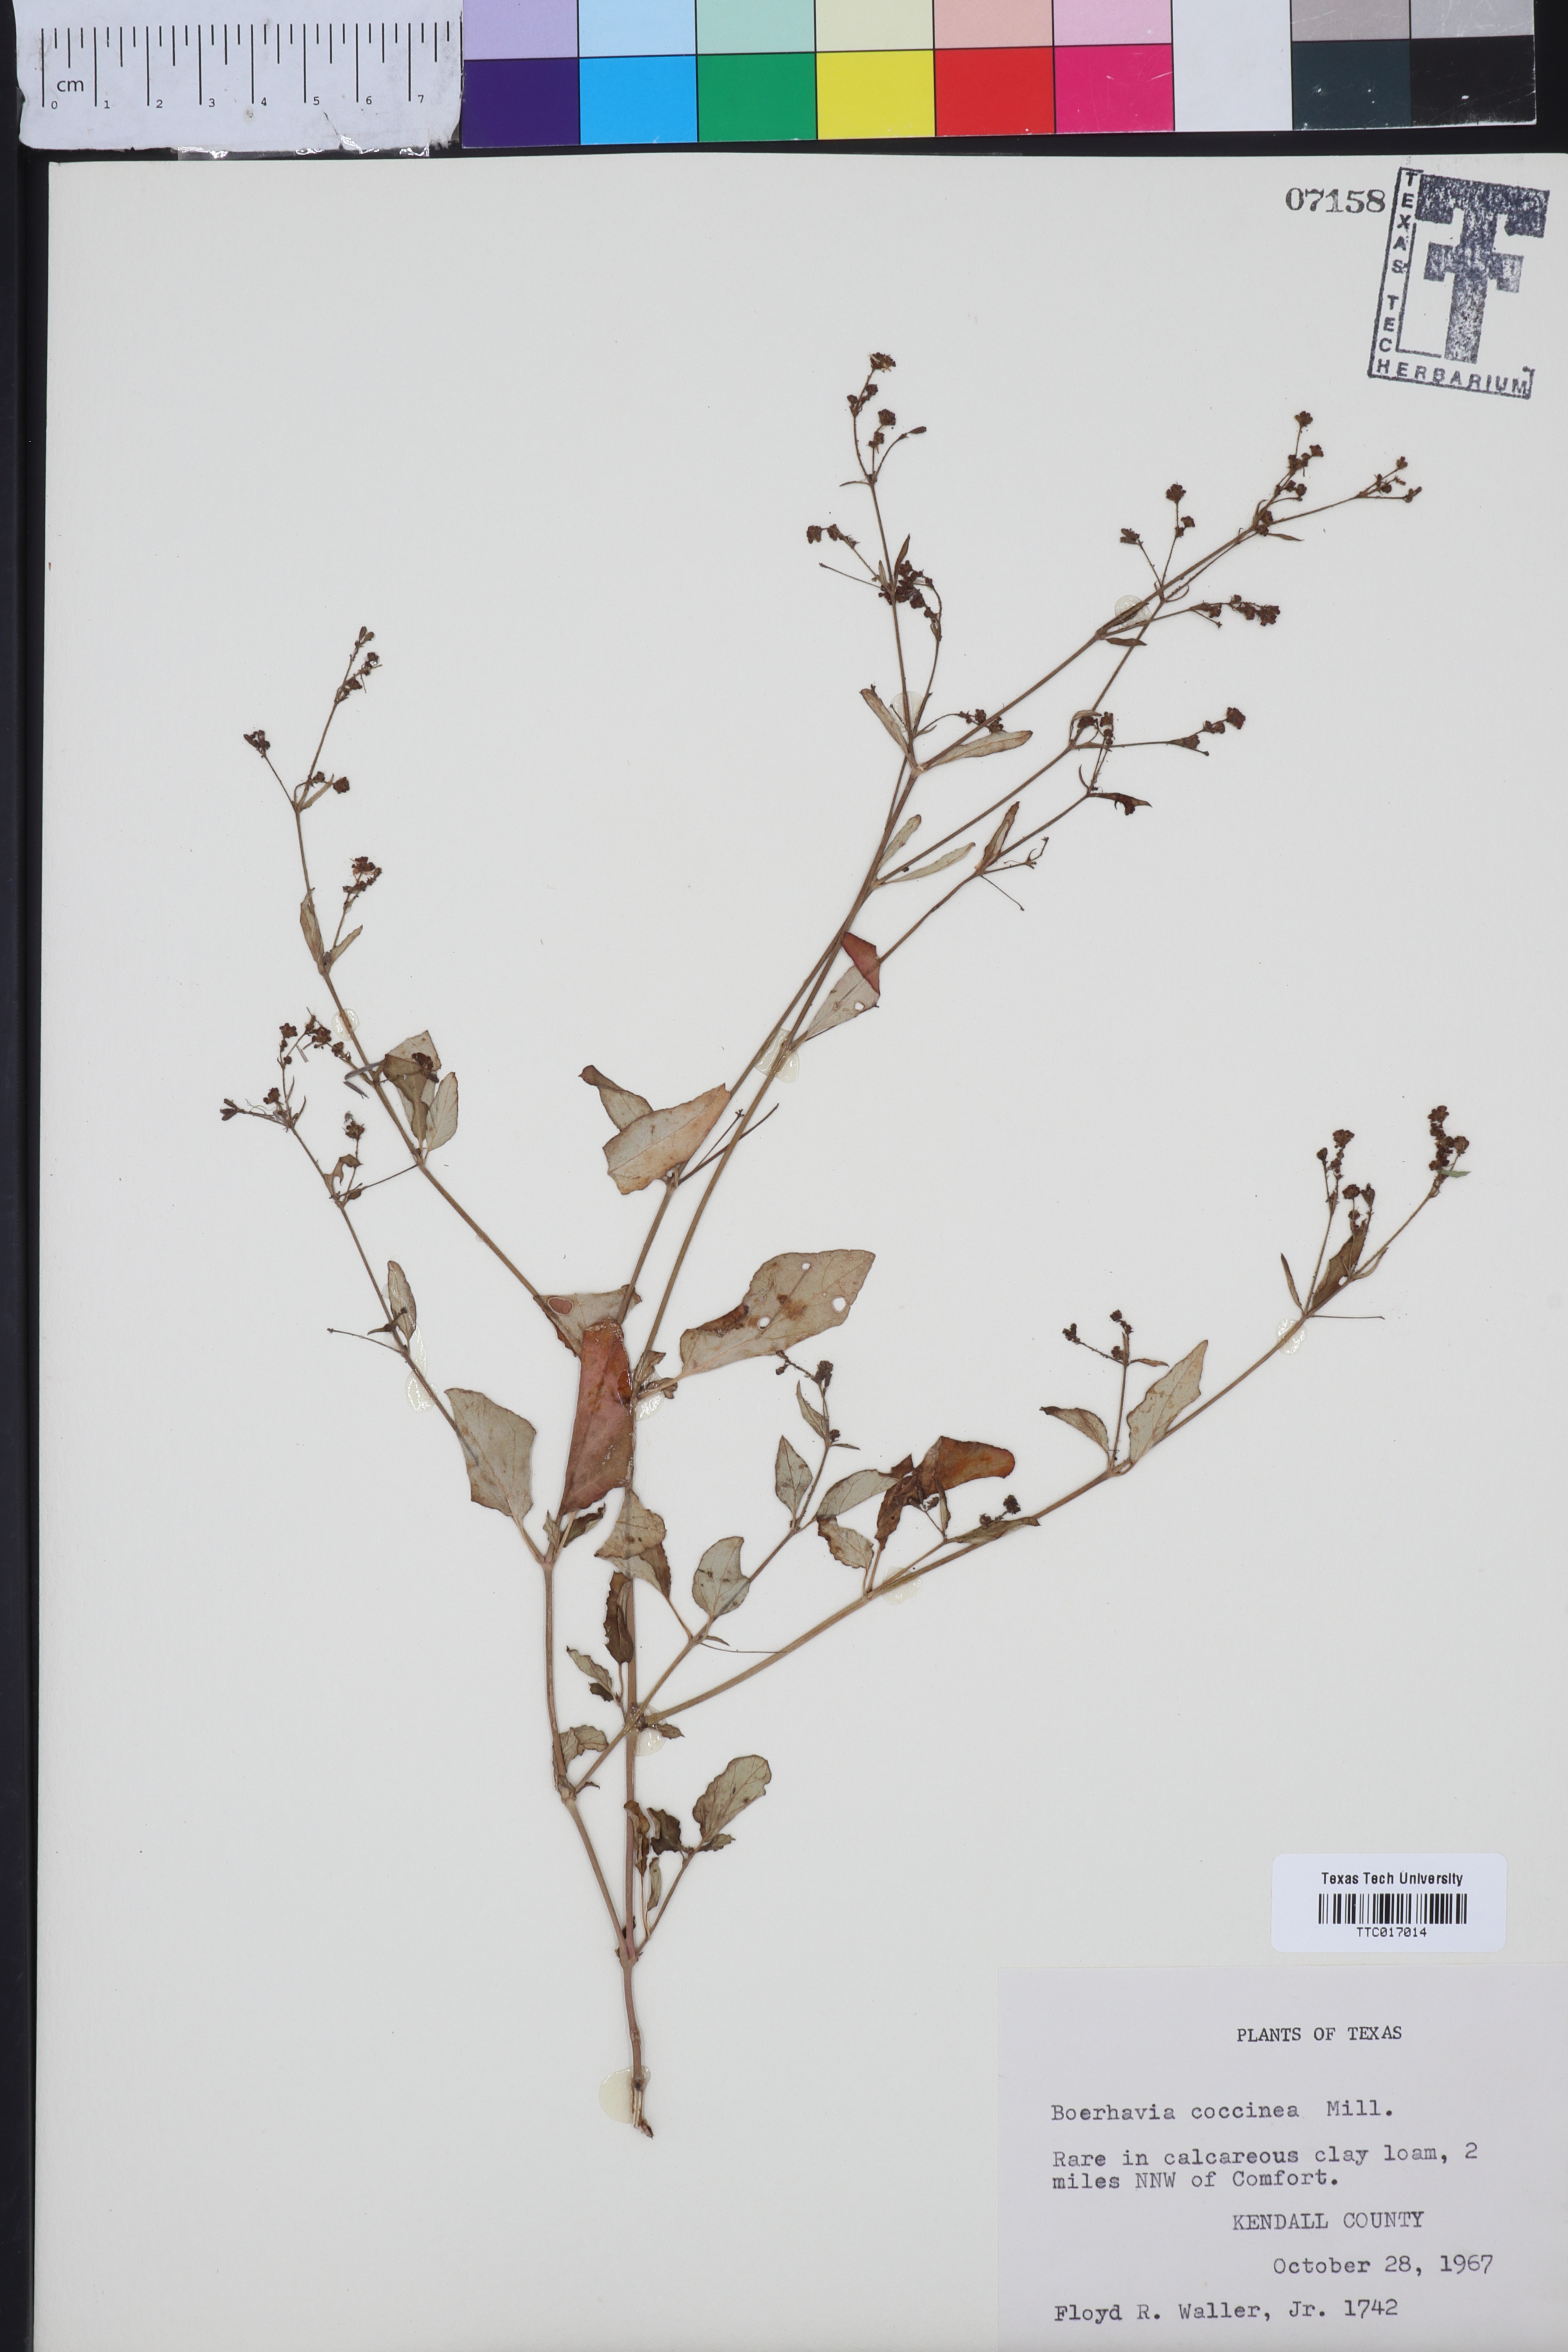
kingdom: Plantae
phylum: Tracheophyta
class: Magnoliopsida
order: Caryophyllales
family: Nyctaginaceae
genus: Boerhavia
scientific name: Boerhavia Boerhaavia coccinea
